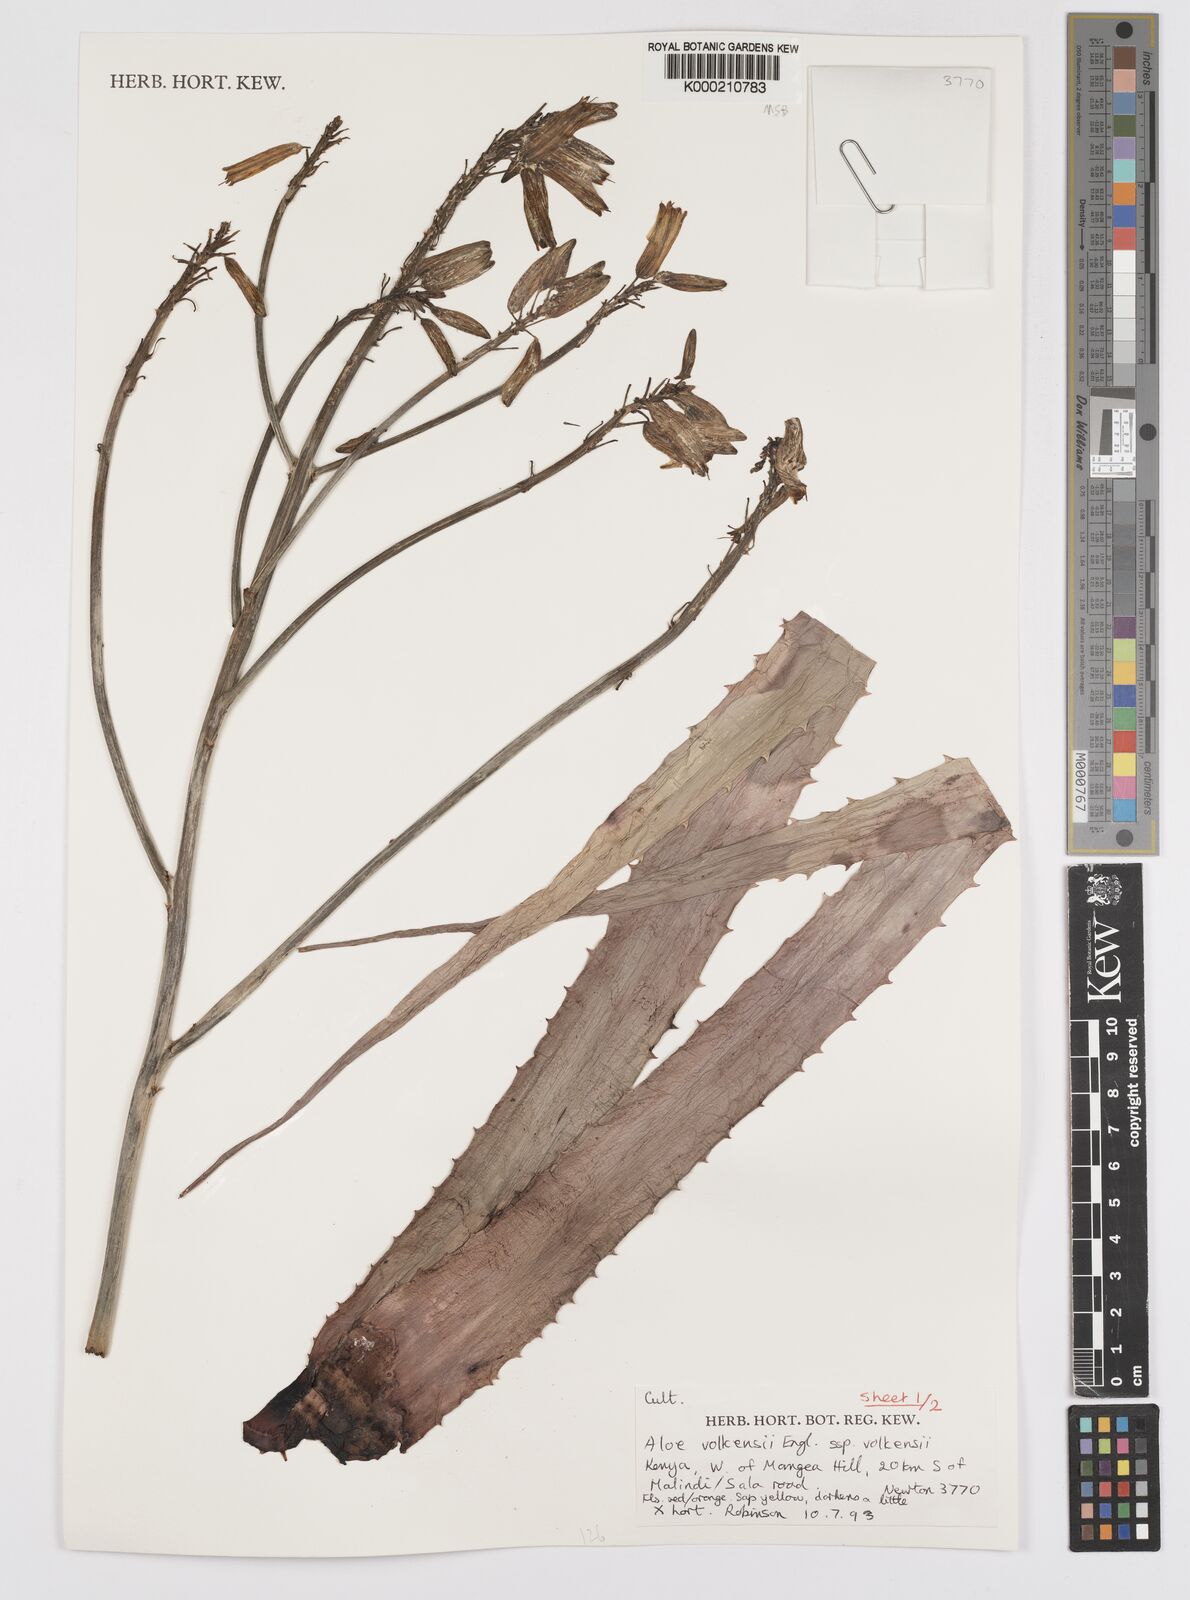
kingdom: Plantae
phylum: Tracheophyta
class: Liliopsida
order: Asparagales
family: Asphodelaceae
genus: Aloe
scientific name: Aloe volkensii
